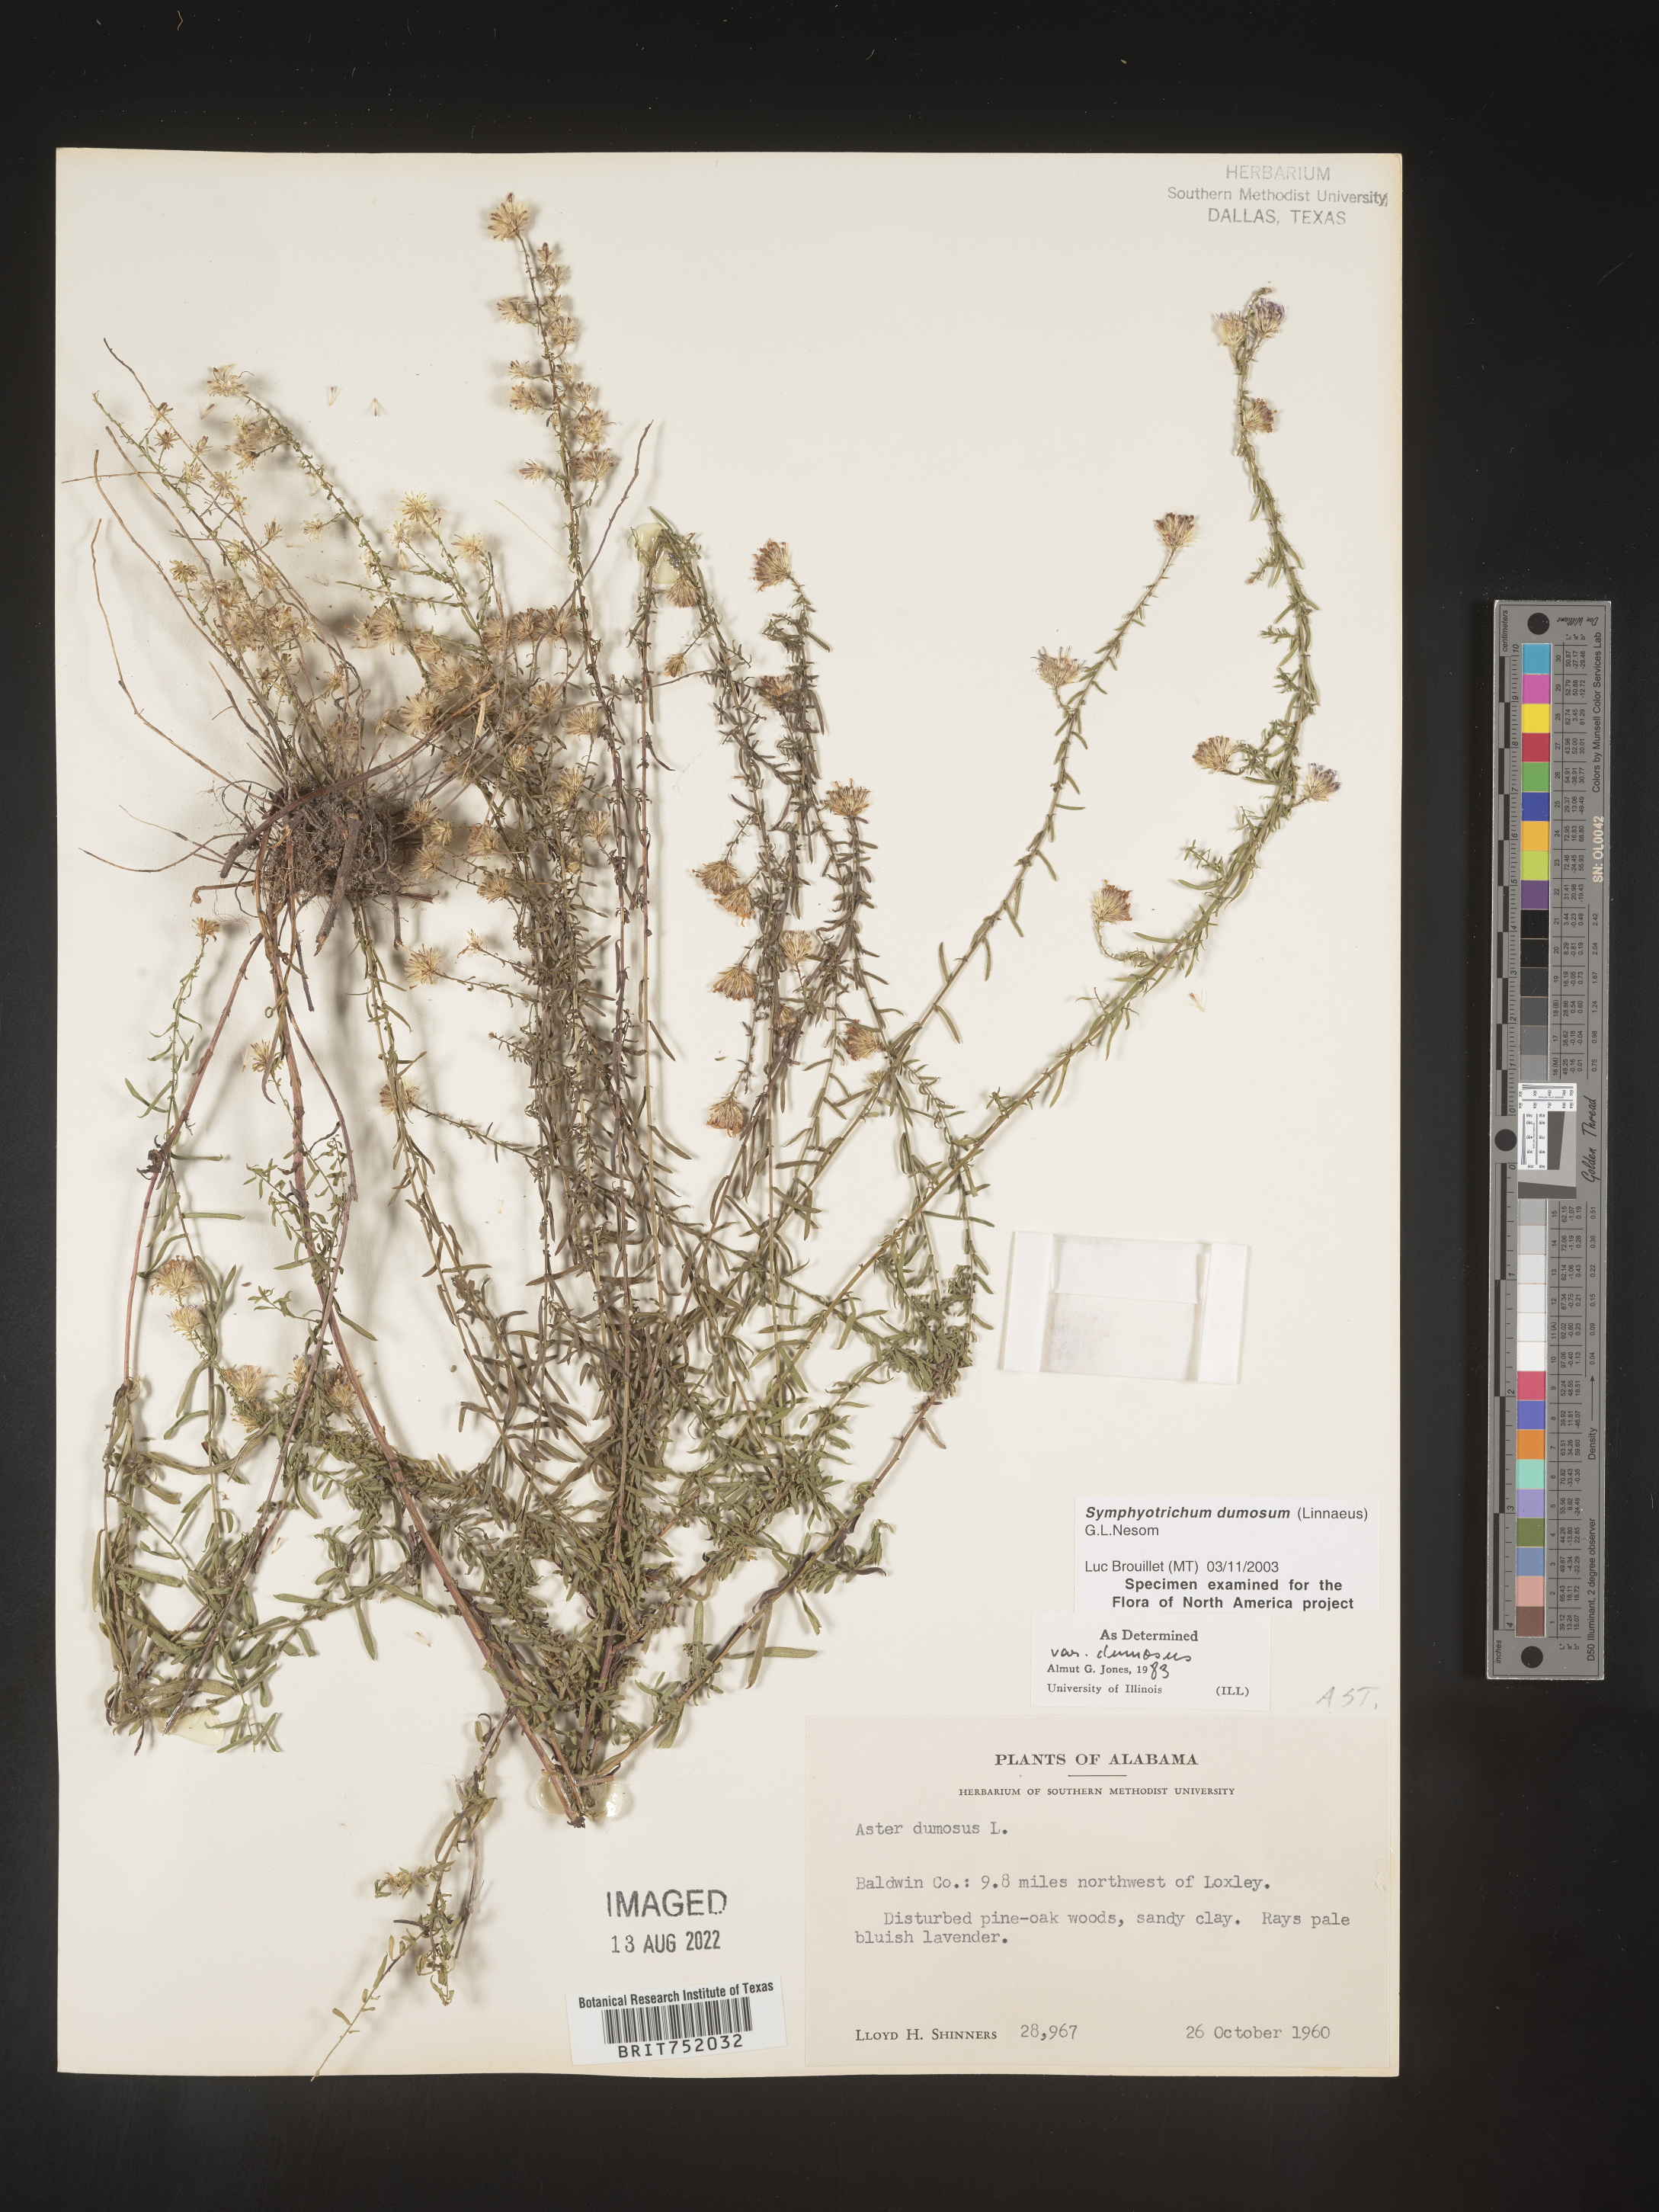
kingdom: Plantae
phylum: Tracheophyta
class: Magnoliopsida
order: Asterales
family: Asteraceae
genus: Symphyotrichum
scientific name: Symphyotrichum dumosum
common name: Bushy aster
